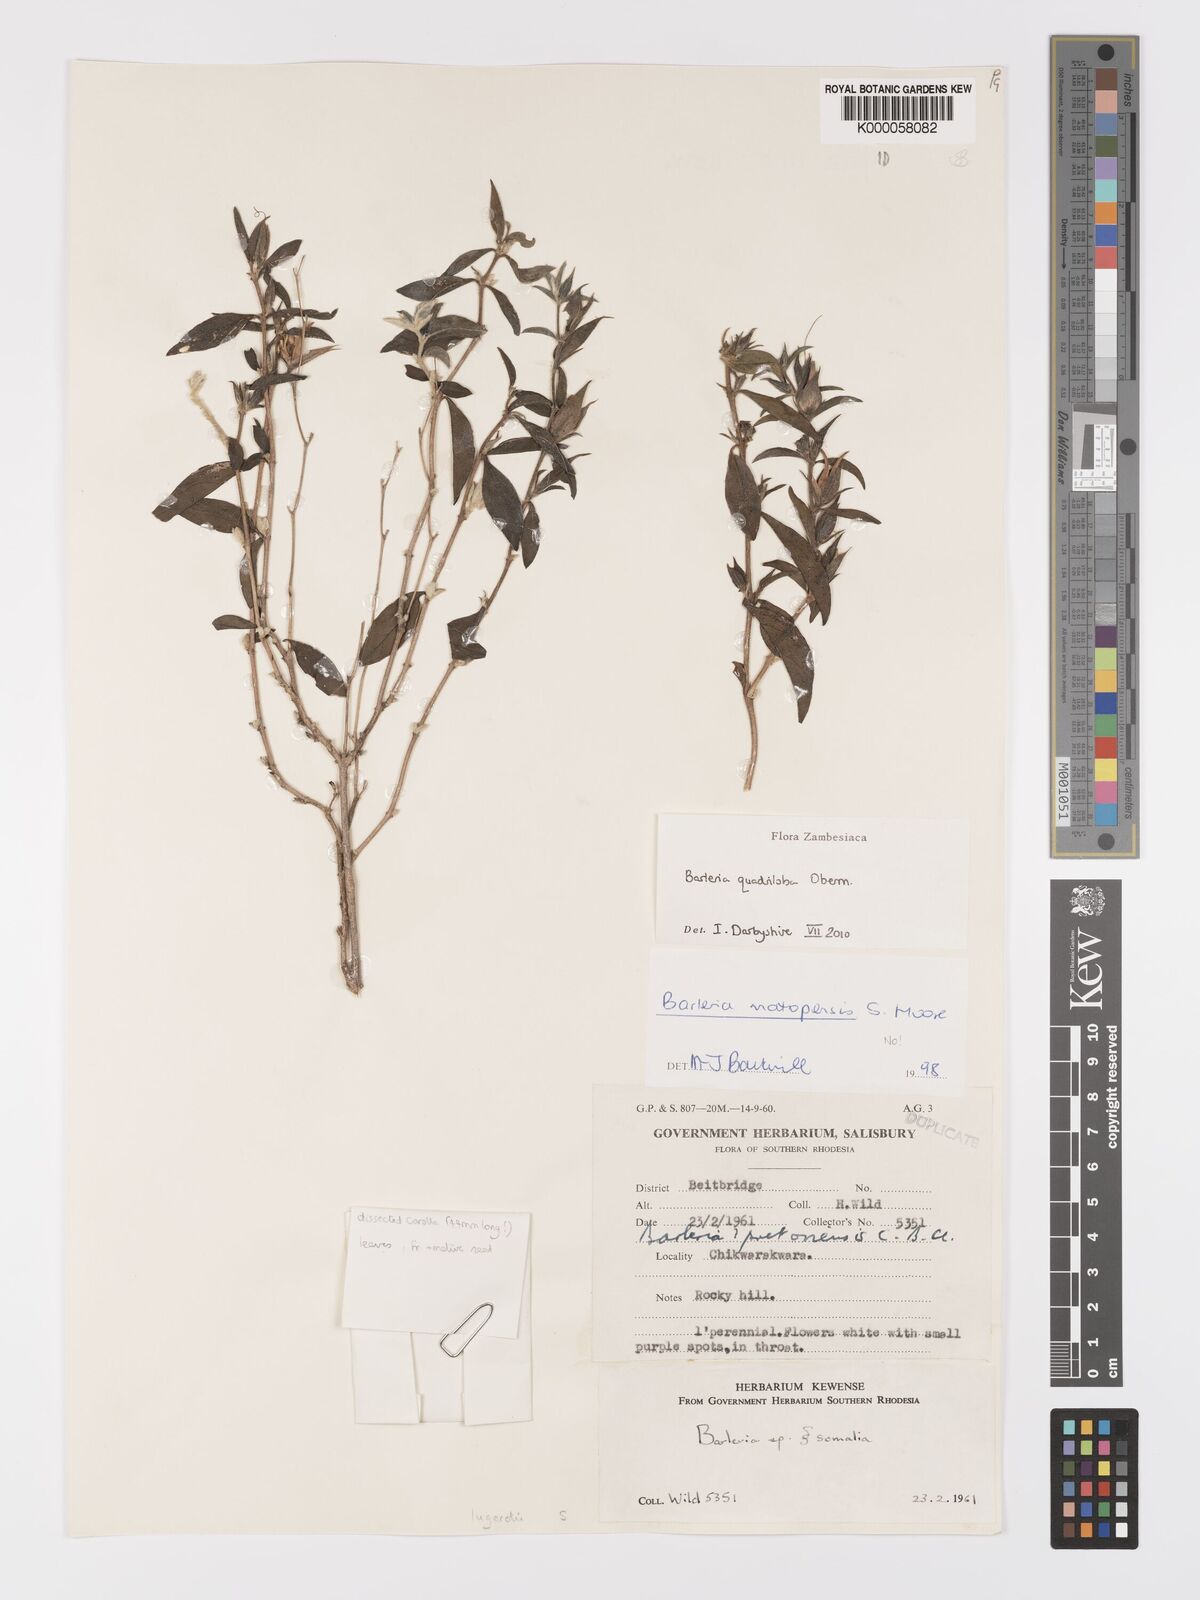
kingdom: Plantae
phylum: Tracheophyta
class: Magnoliopsida
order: Lamiales
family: Acanthaceae
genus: Barleria
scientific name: Barleria matopensis
